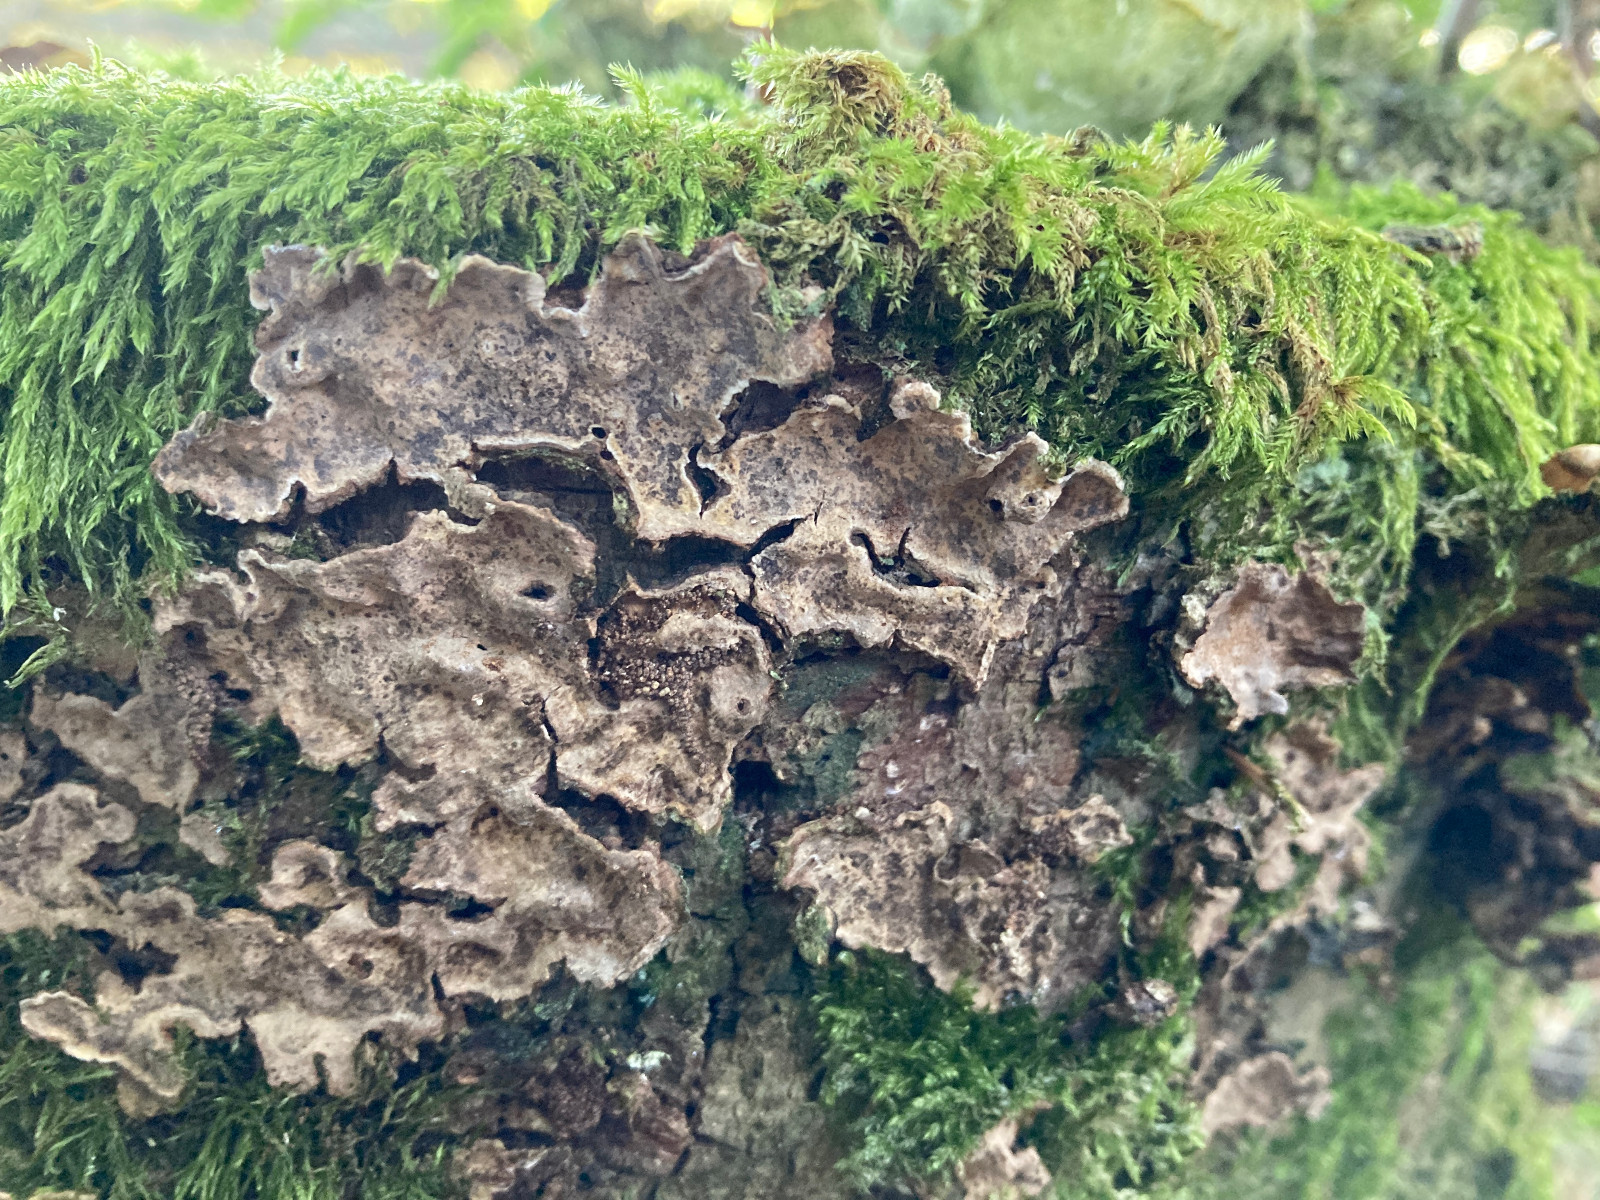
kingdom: Fungi
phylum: Basidiomycota
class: Agaricomycetes
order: Russulales
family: Stereaceae
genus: Stereum
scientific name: Stereum rugosum
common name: rynket lædersvamp
